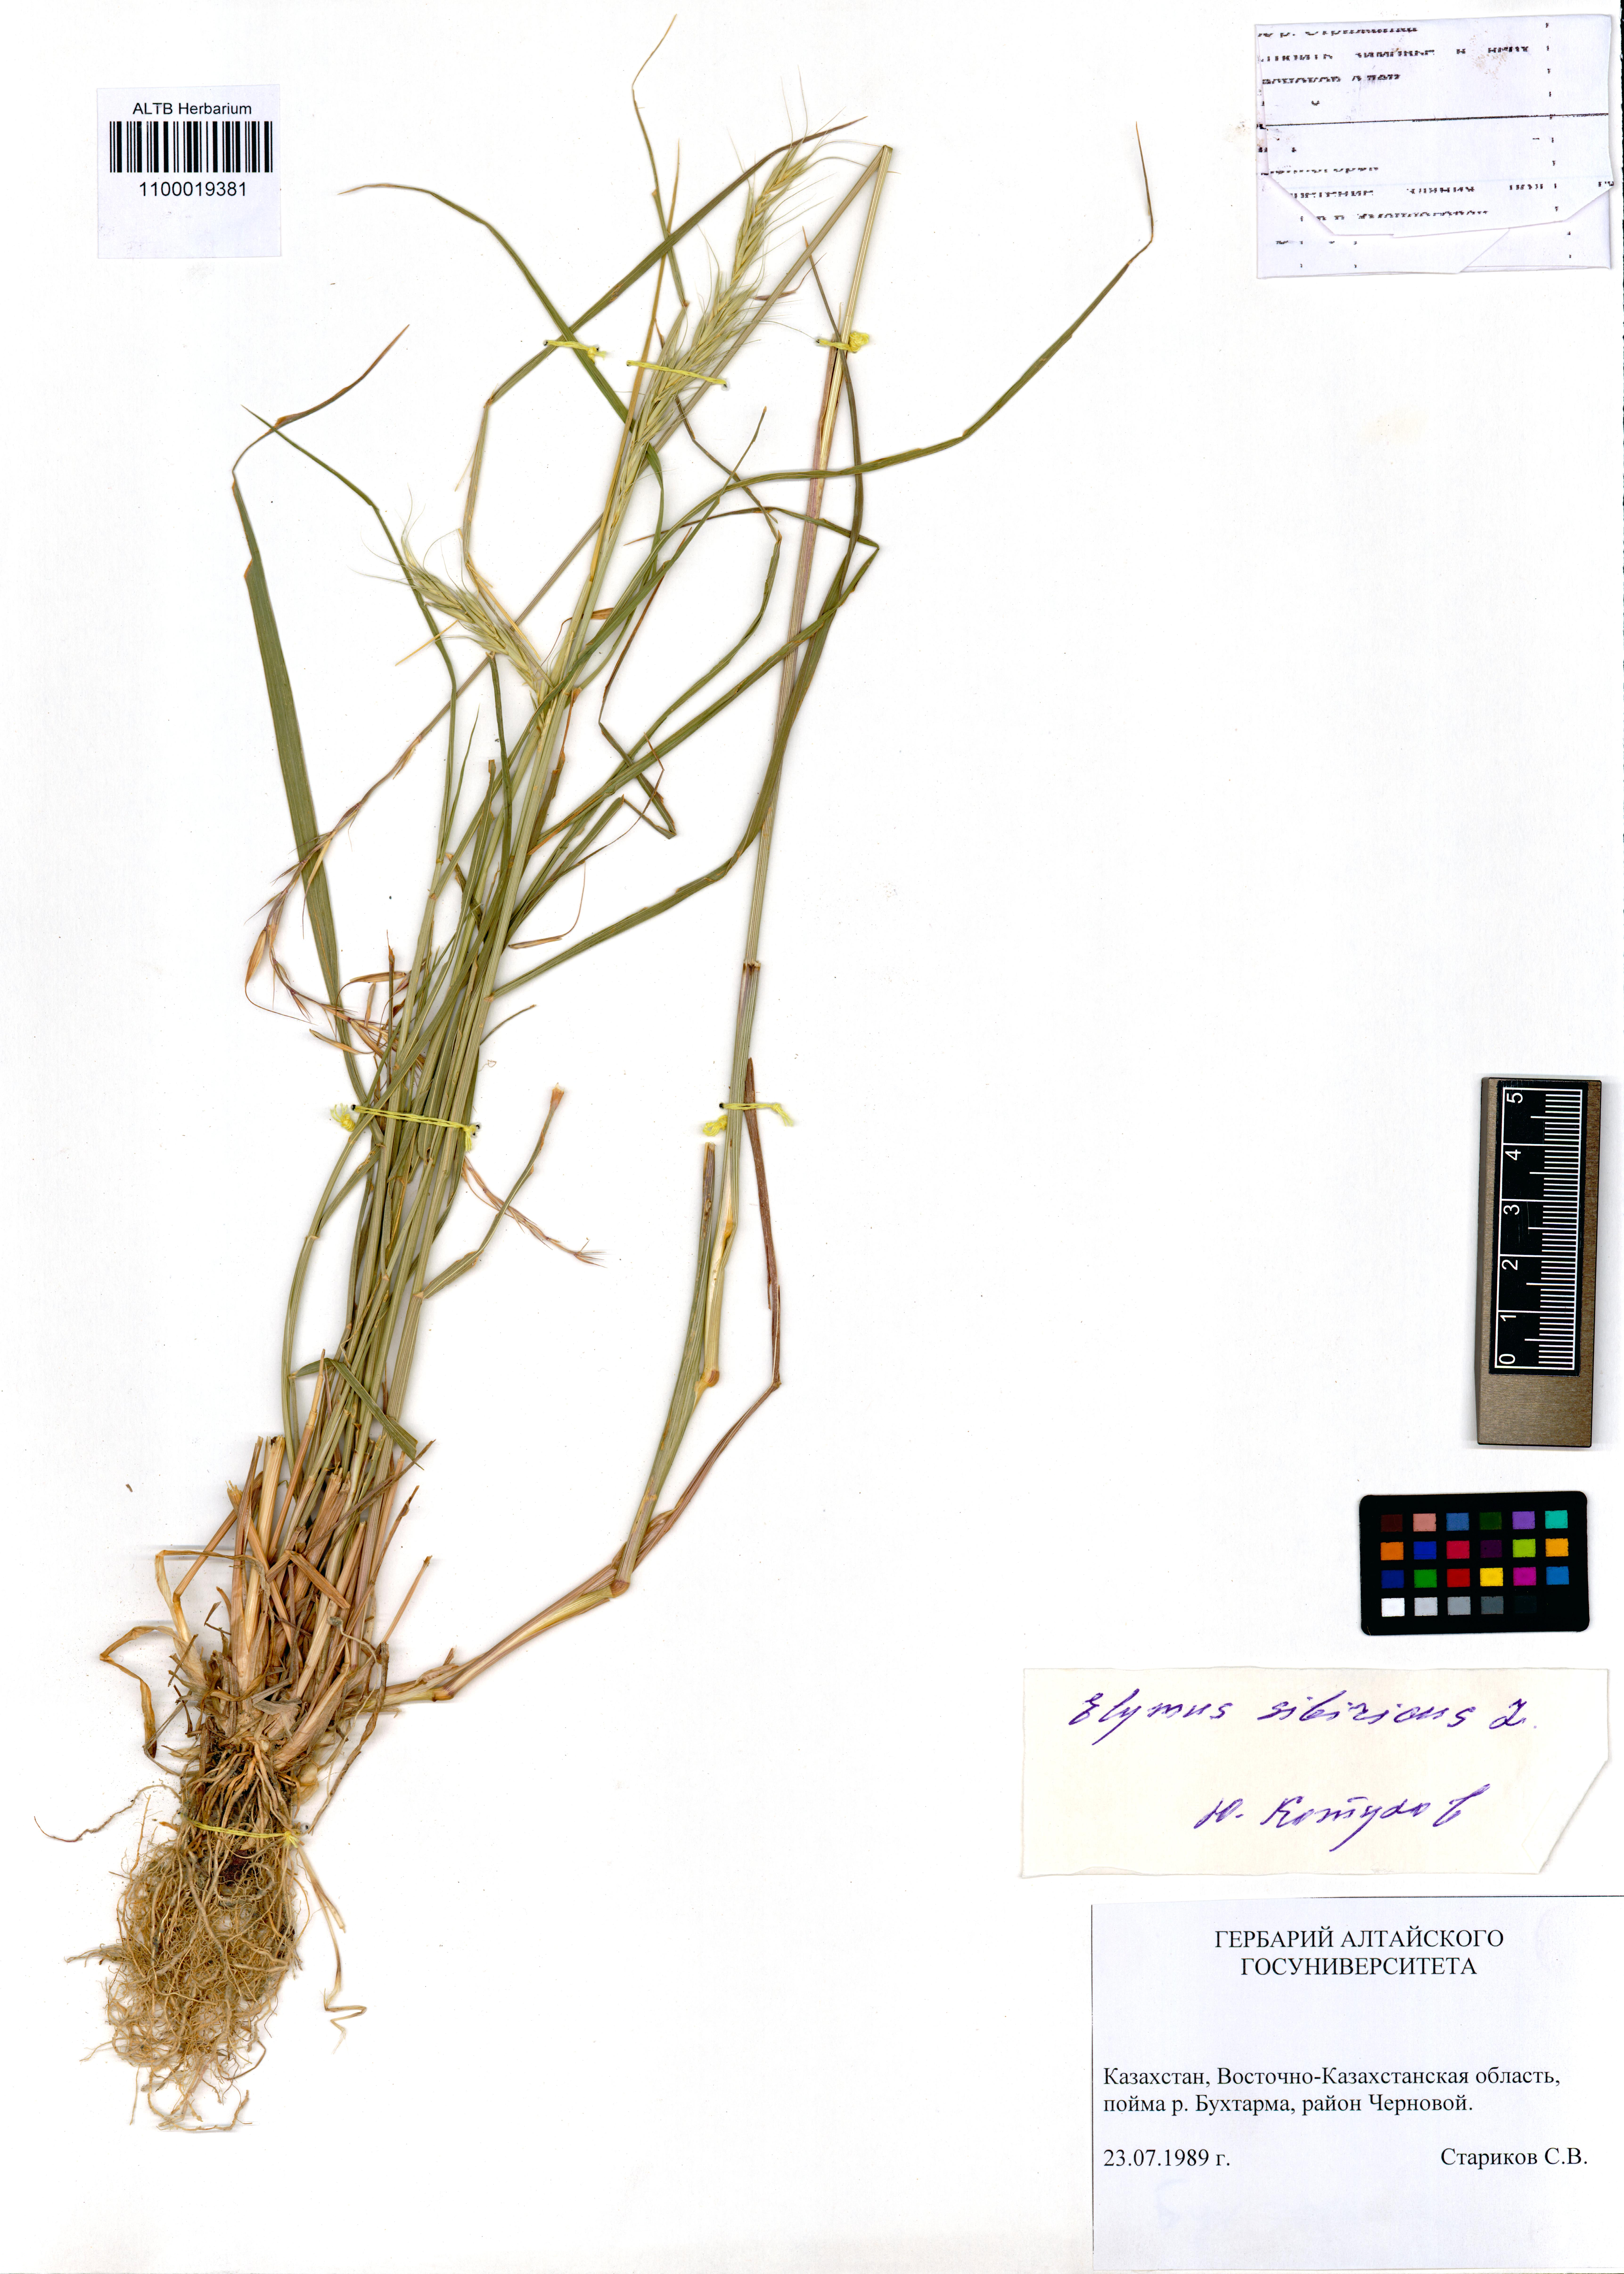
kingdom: Plantae
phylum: Tracheophyta
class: Liliopsida
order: Poales
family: Poaceae
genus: Elymus
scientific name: Elymus sibiricus
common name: Siberian wildrye
